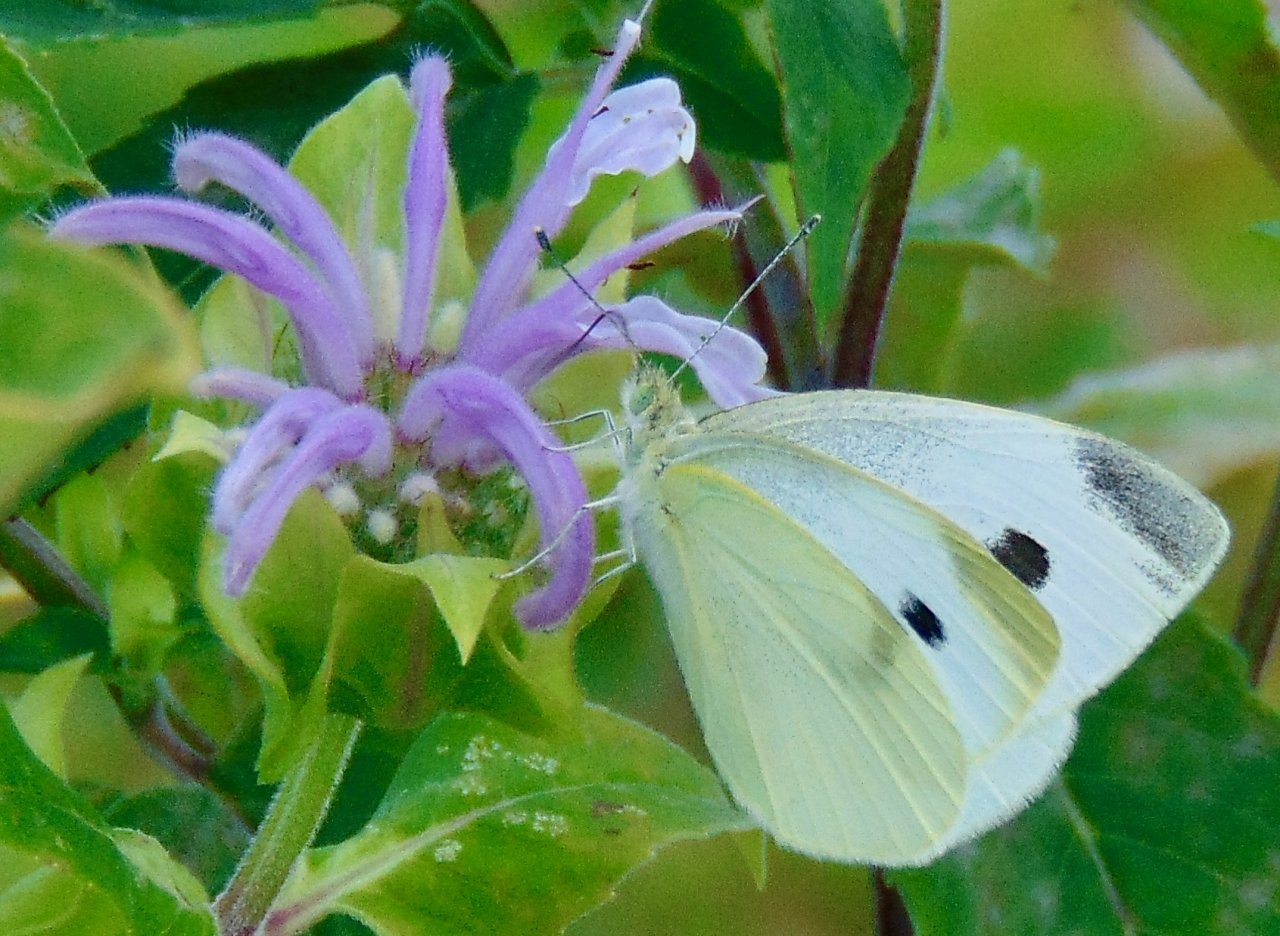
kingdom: Animalia
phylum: Arthropoda
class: Insecta
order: Lepidoptera
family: Pieridae
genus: Pieris
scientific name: Pieris rapae
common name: Cabbage White
